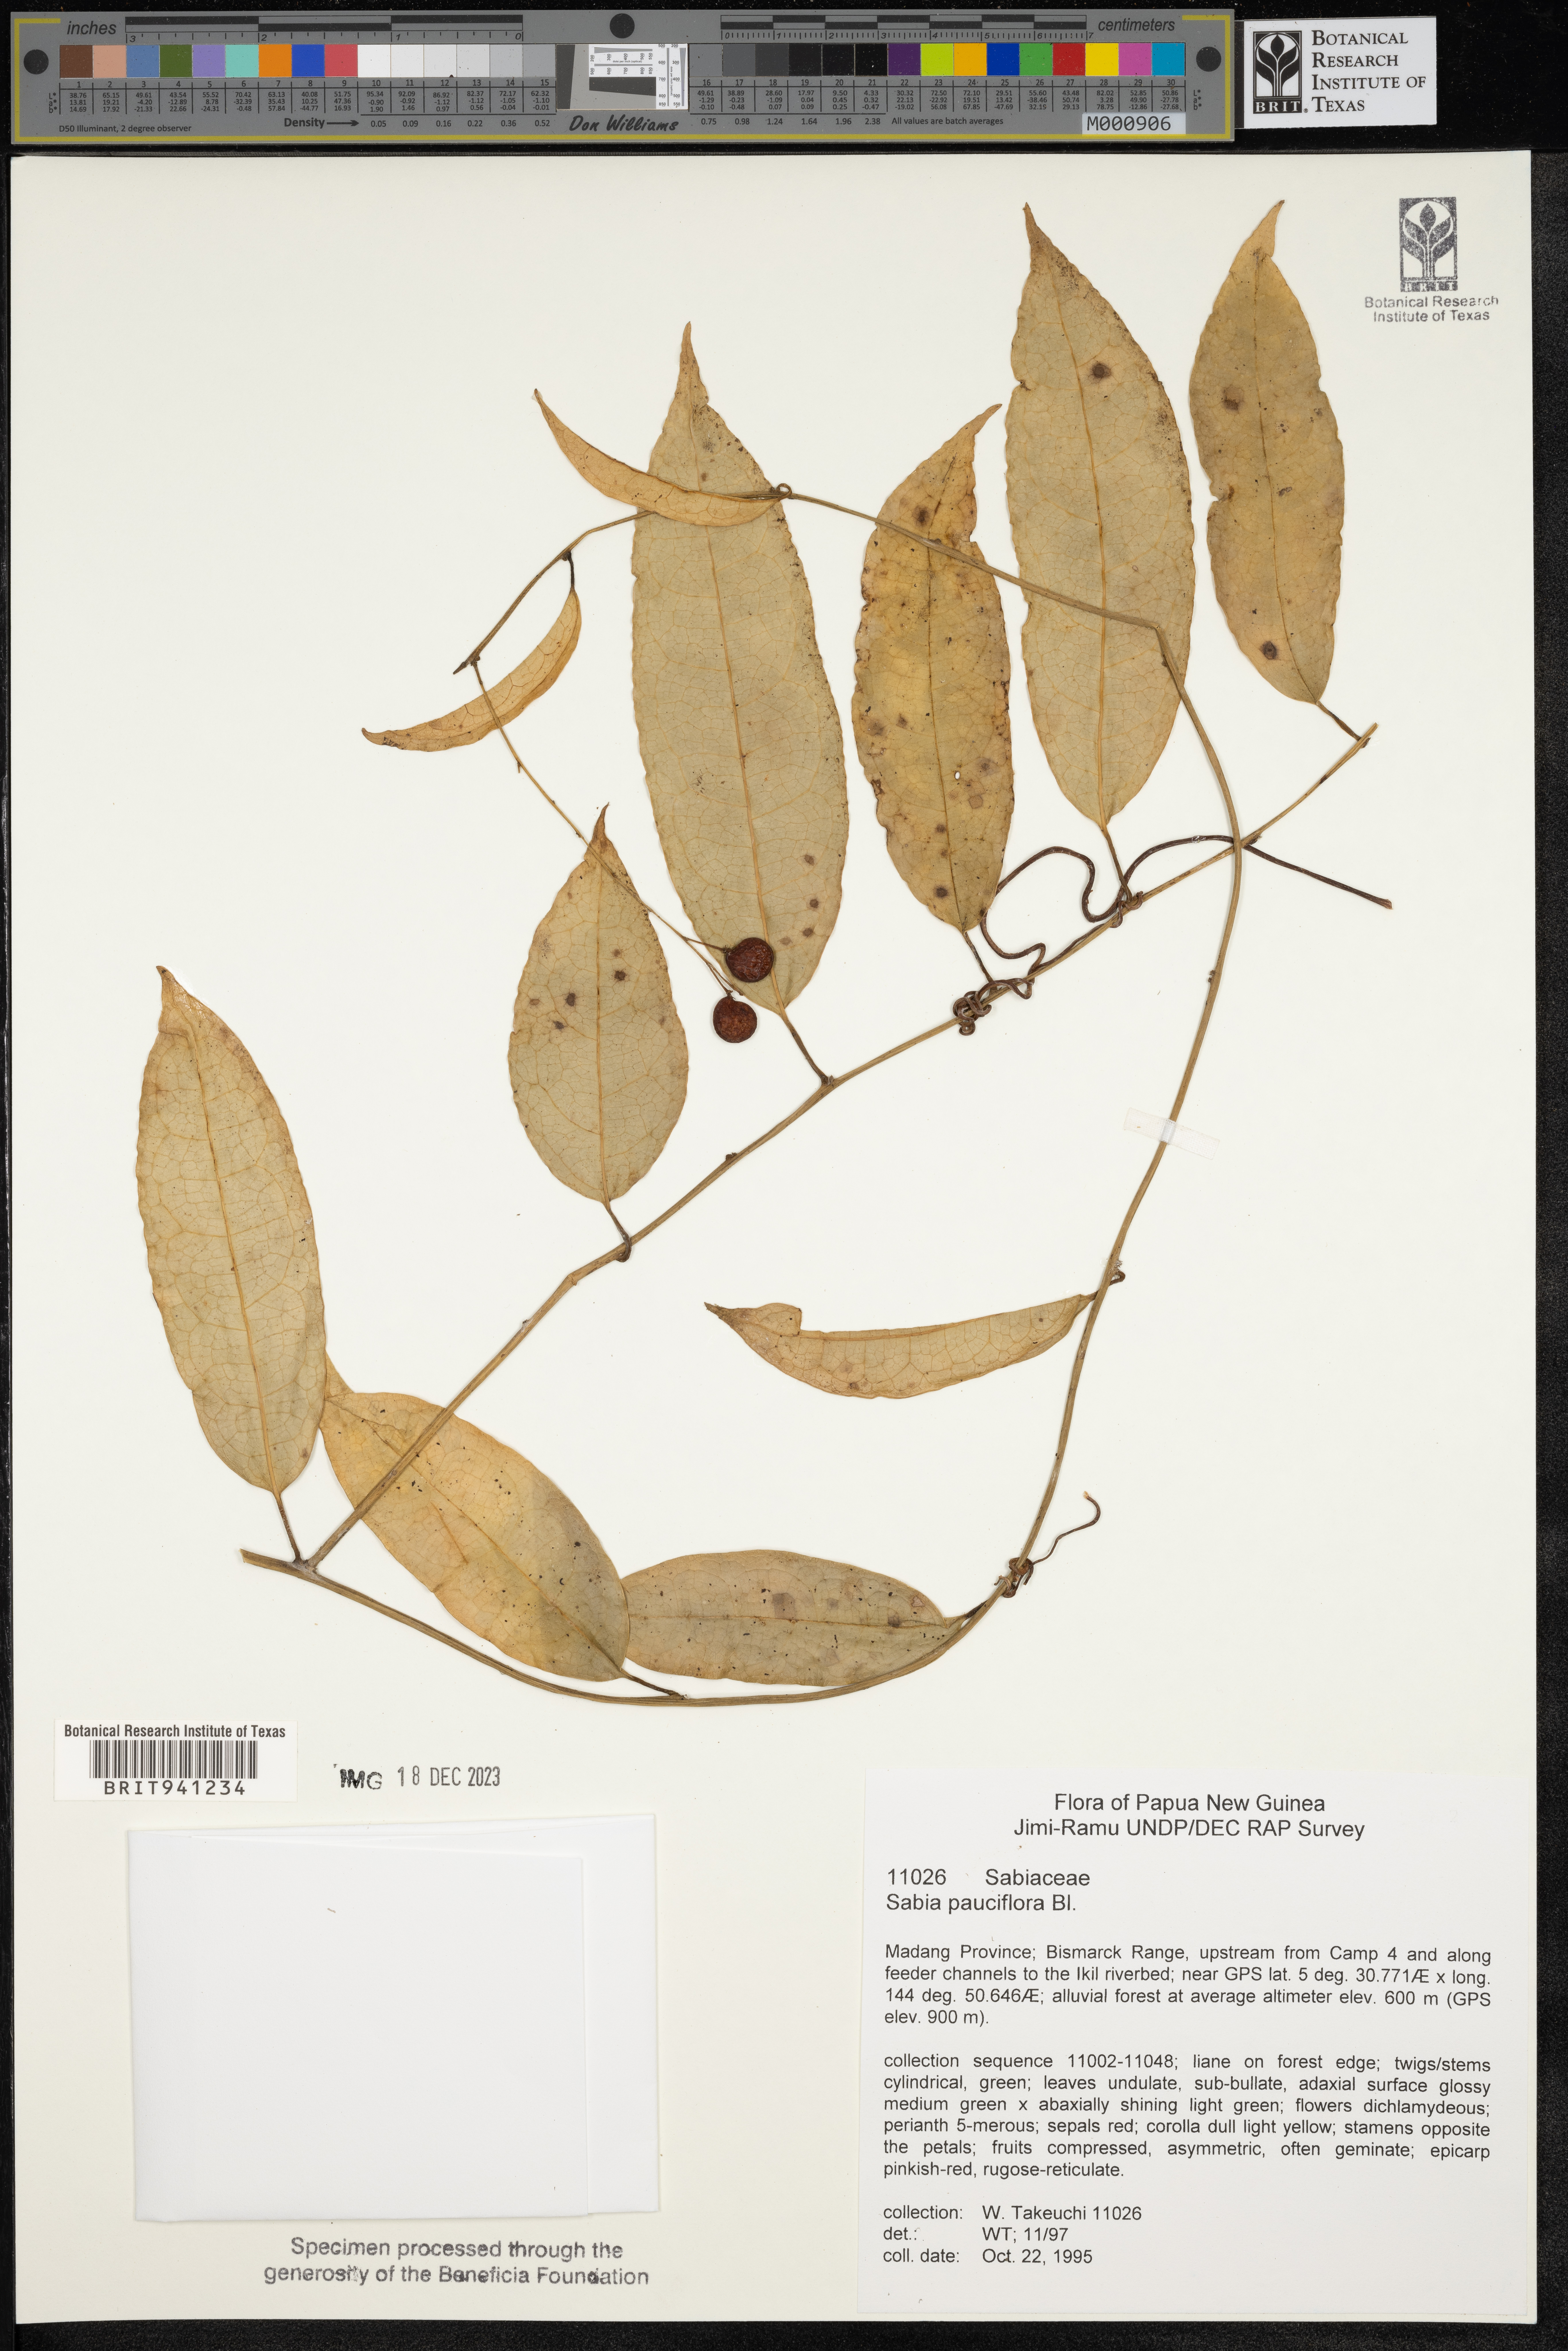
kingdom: Plantae
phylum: Tracheophyta
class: Magnoliopsida
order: Proteales
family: Sabiaceae
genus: Sabia
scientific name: Sabia
